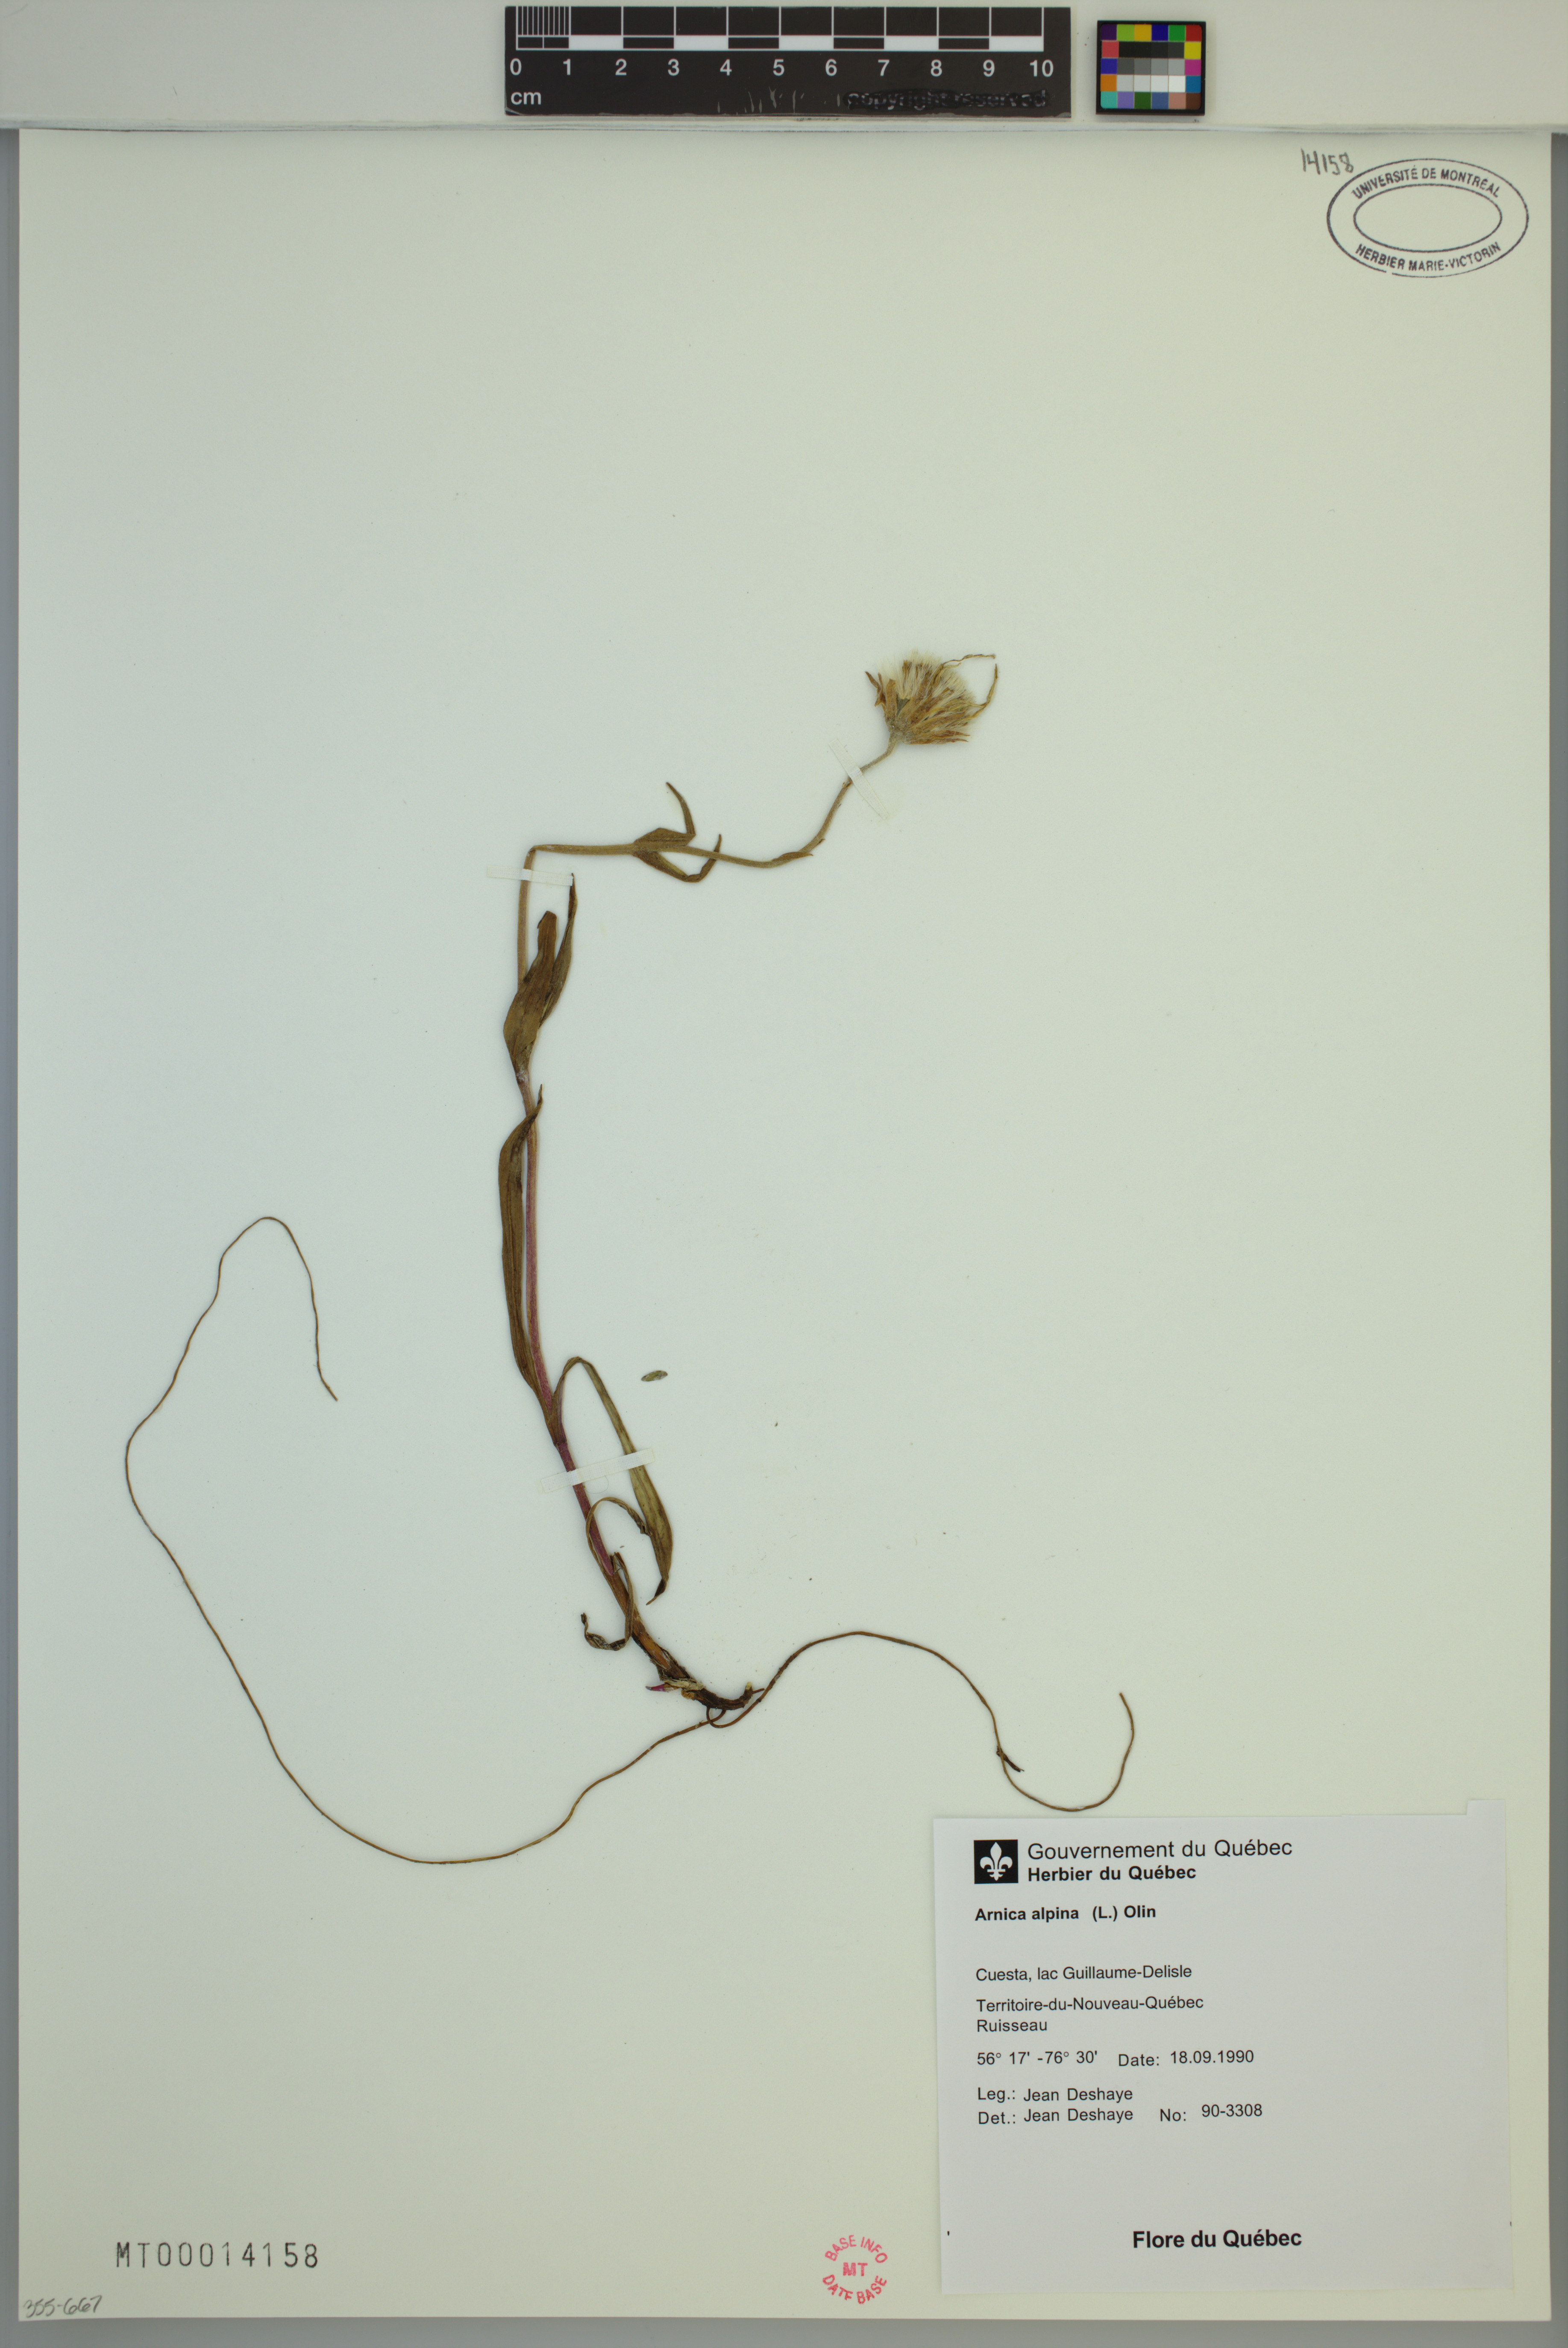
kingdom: Plantae
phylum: Tracheophyta
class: Magnoliopsida
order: Asterales
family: Asteraceae
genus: Arnica
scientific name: Arnica angustifolia
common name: Arctic arnica
